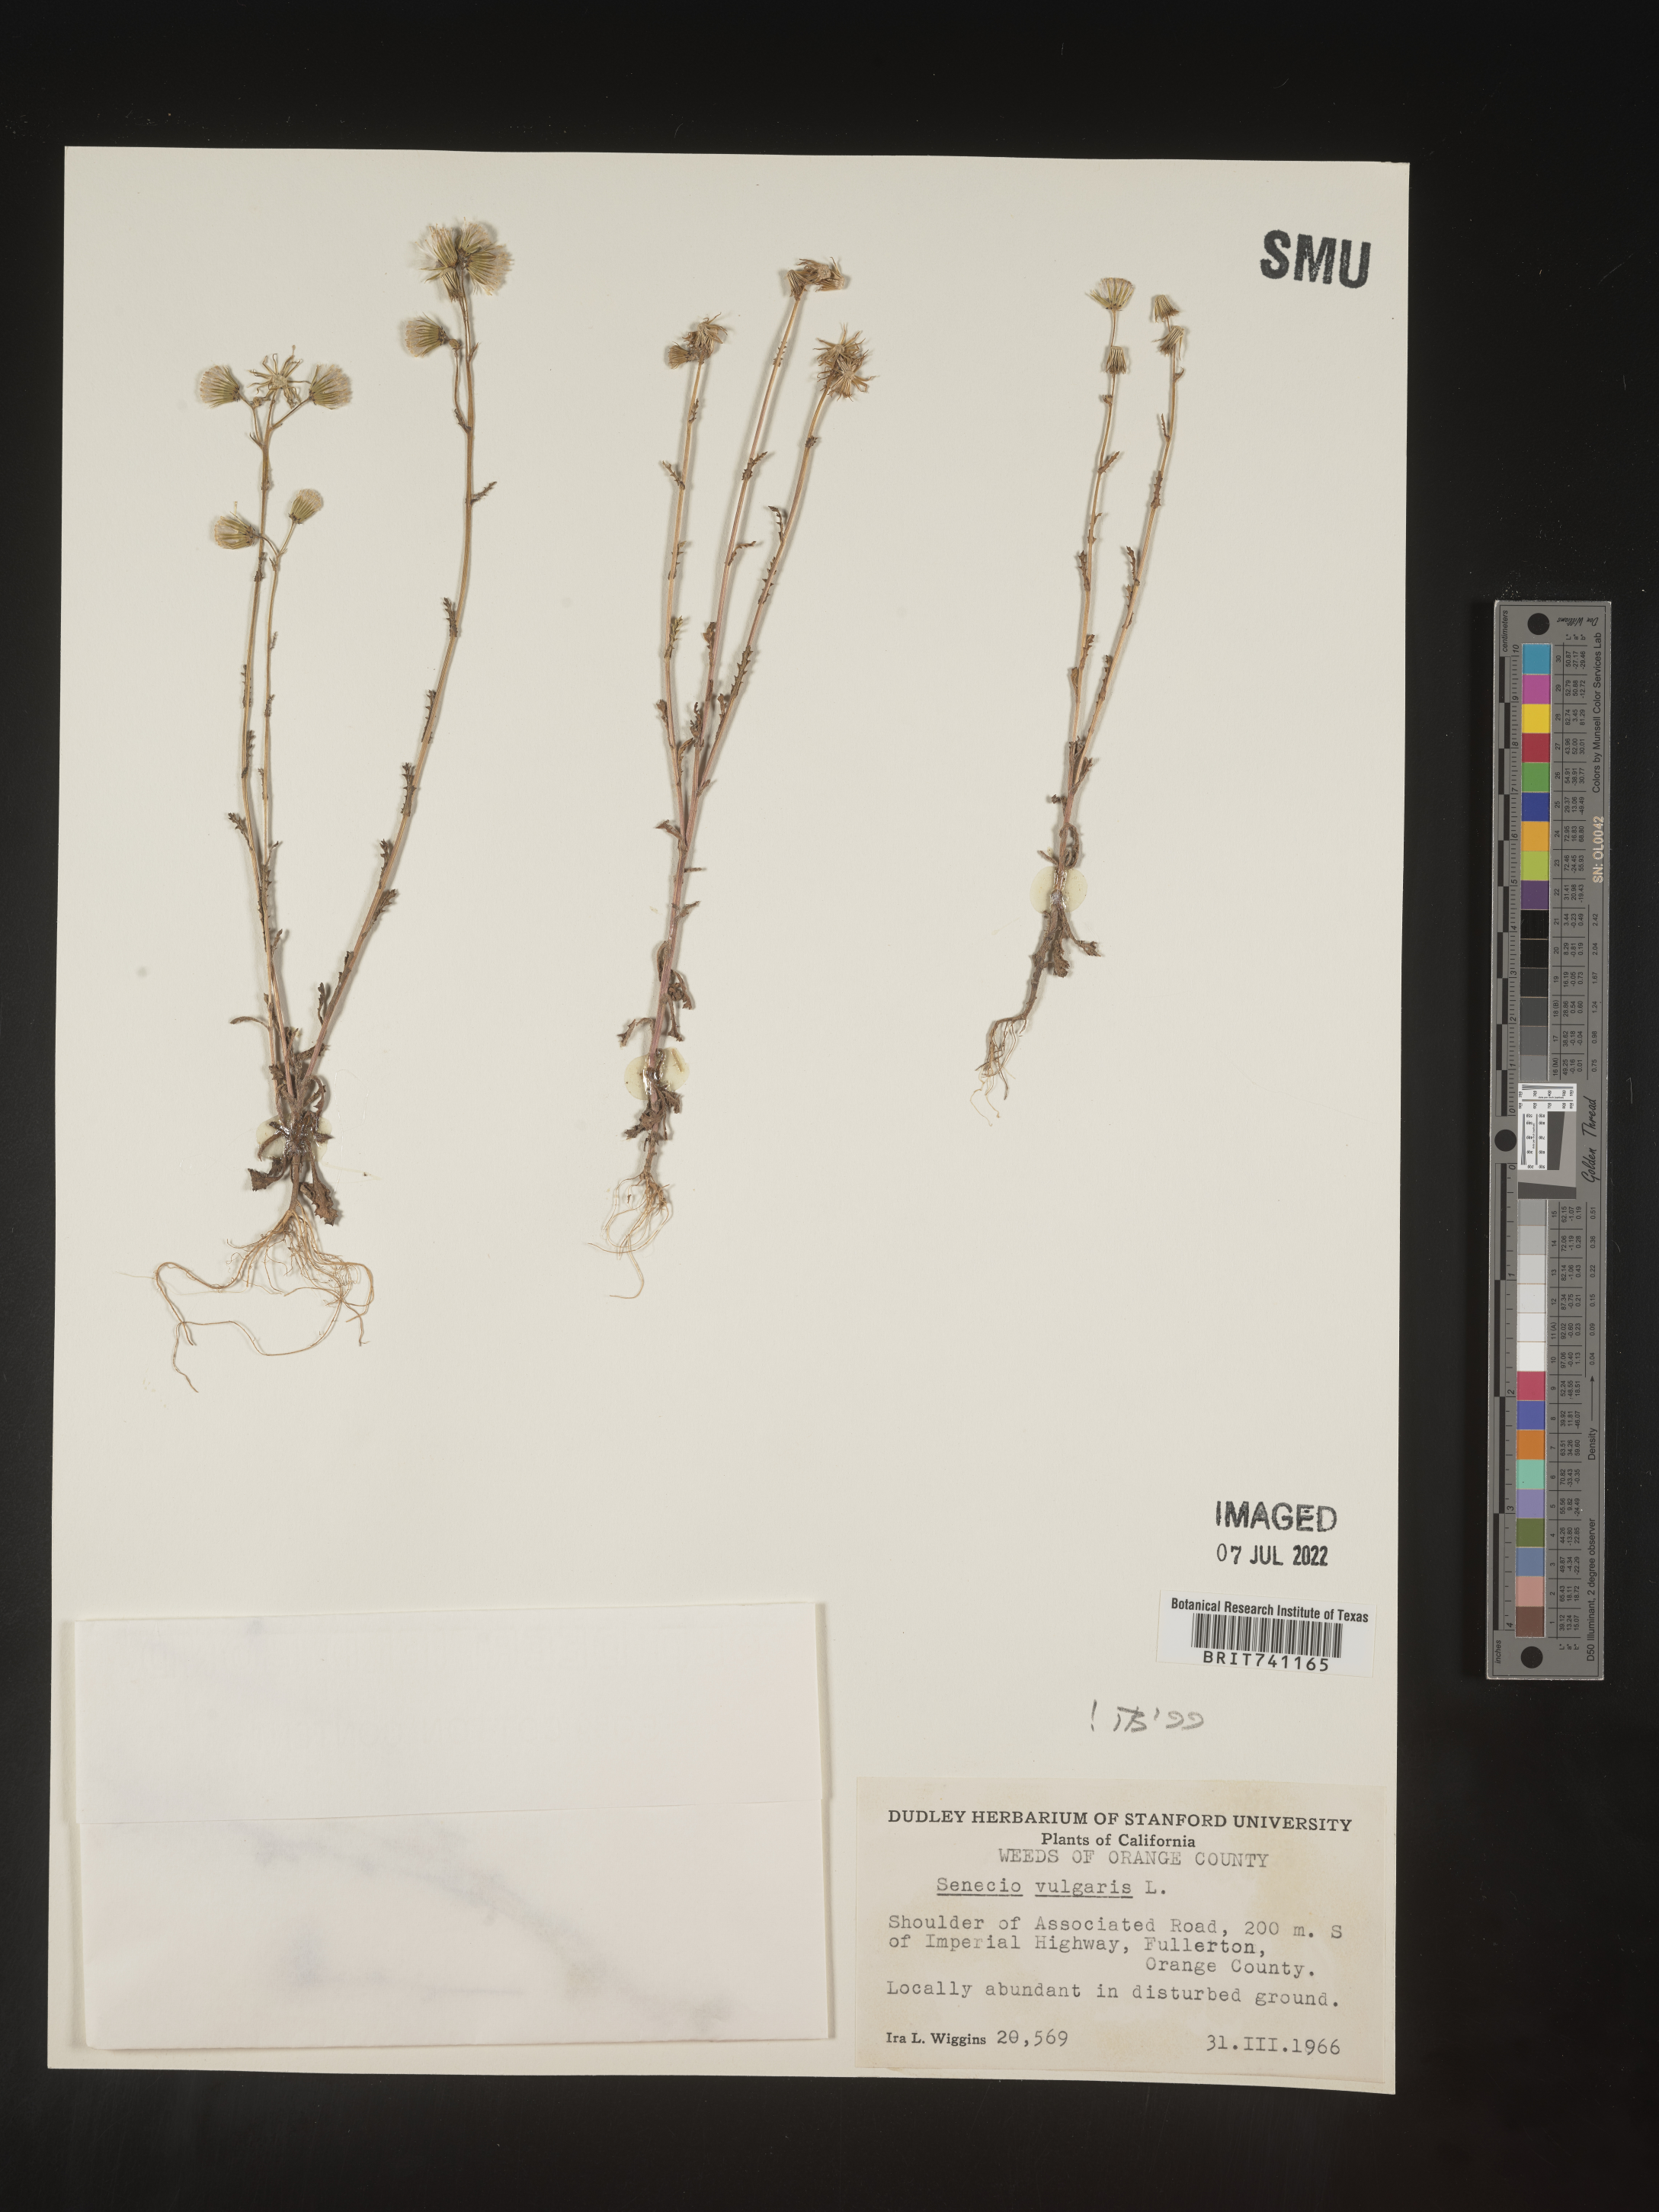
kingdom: Plantae
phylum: Tracheophyta
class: Magnoliopsida
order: Asterales
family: Asteraceae
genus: Senecio
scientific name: Senecio vulgaris
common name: Old-man-in-the-spring
